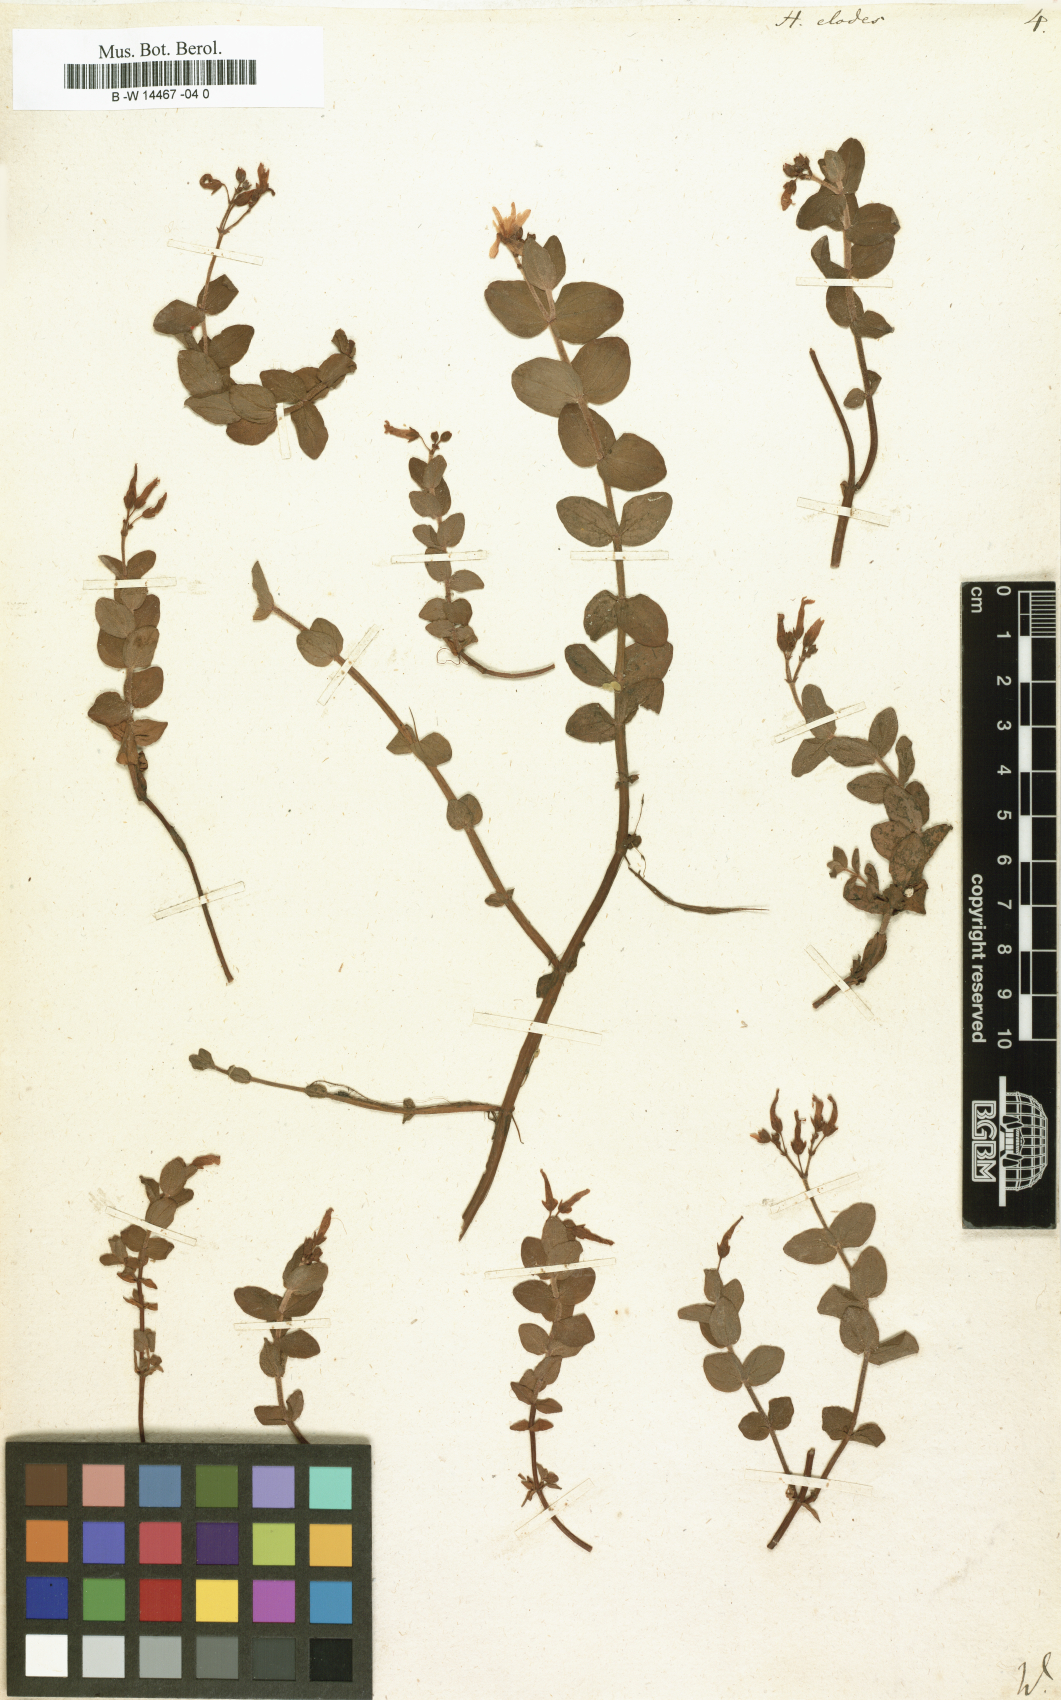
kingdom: Plantae
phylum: Tracheophyta
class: Magnoliopsida
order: Malpighiales
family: Hypericaceae
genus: Hypericum
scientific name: Hypericum elodes
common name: Marsh st. john's-wort
